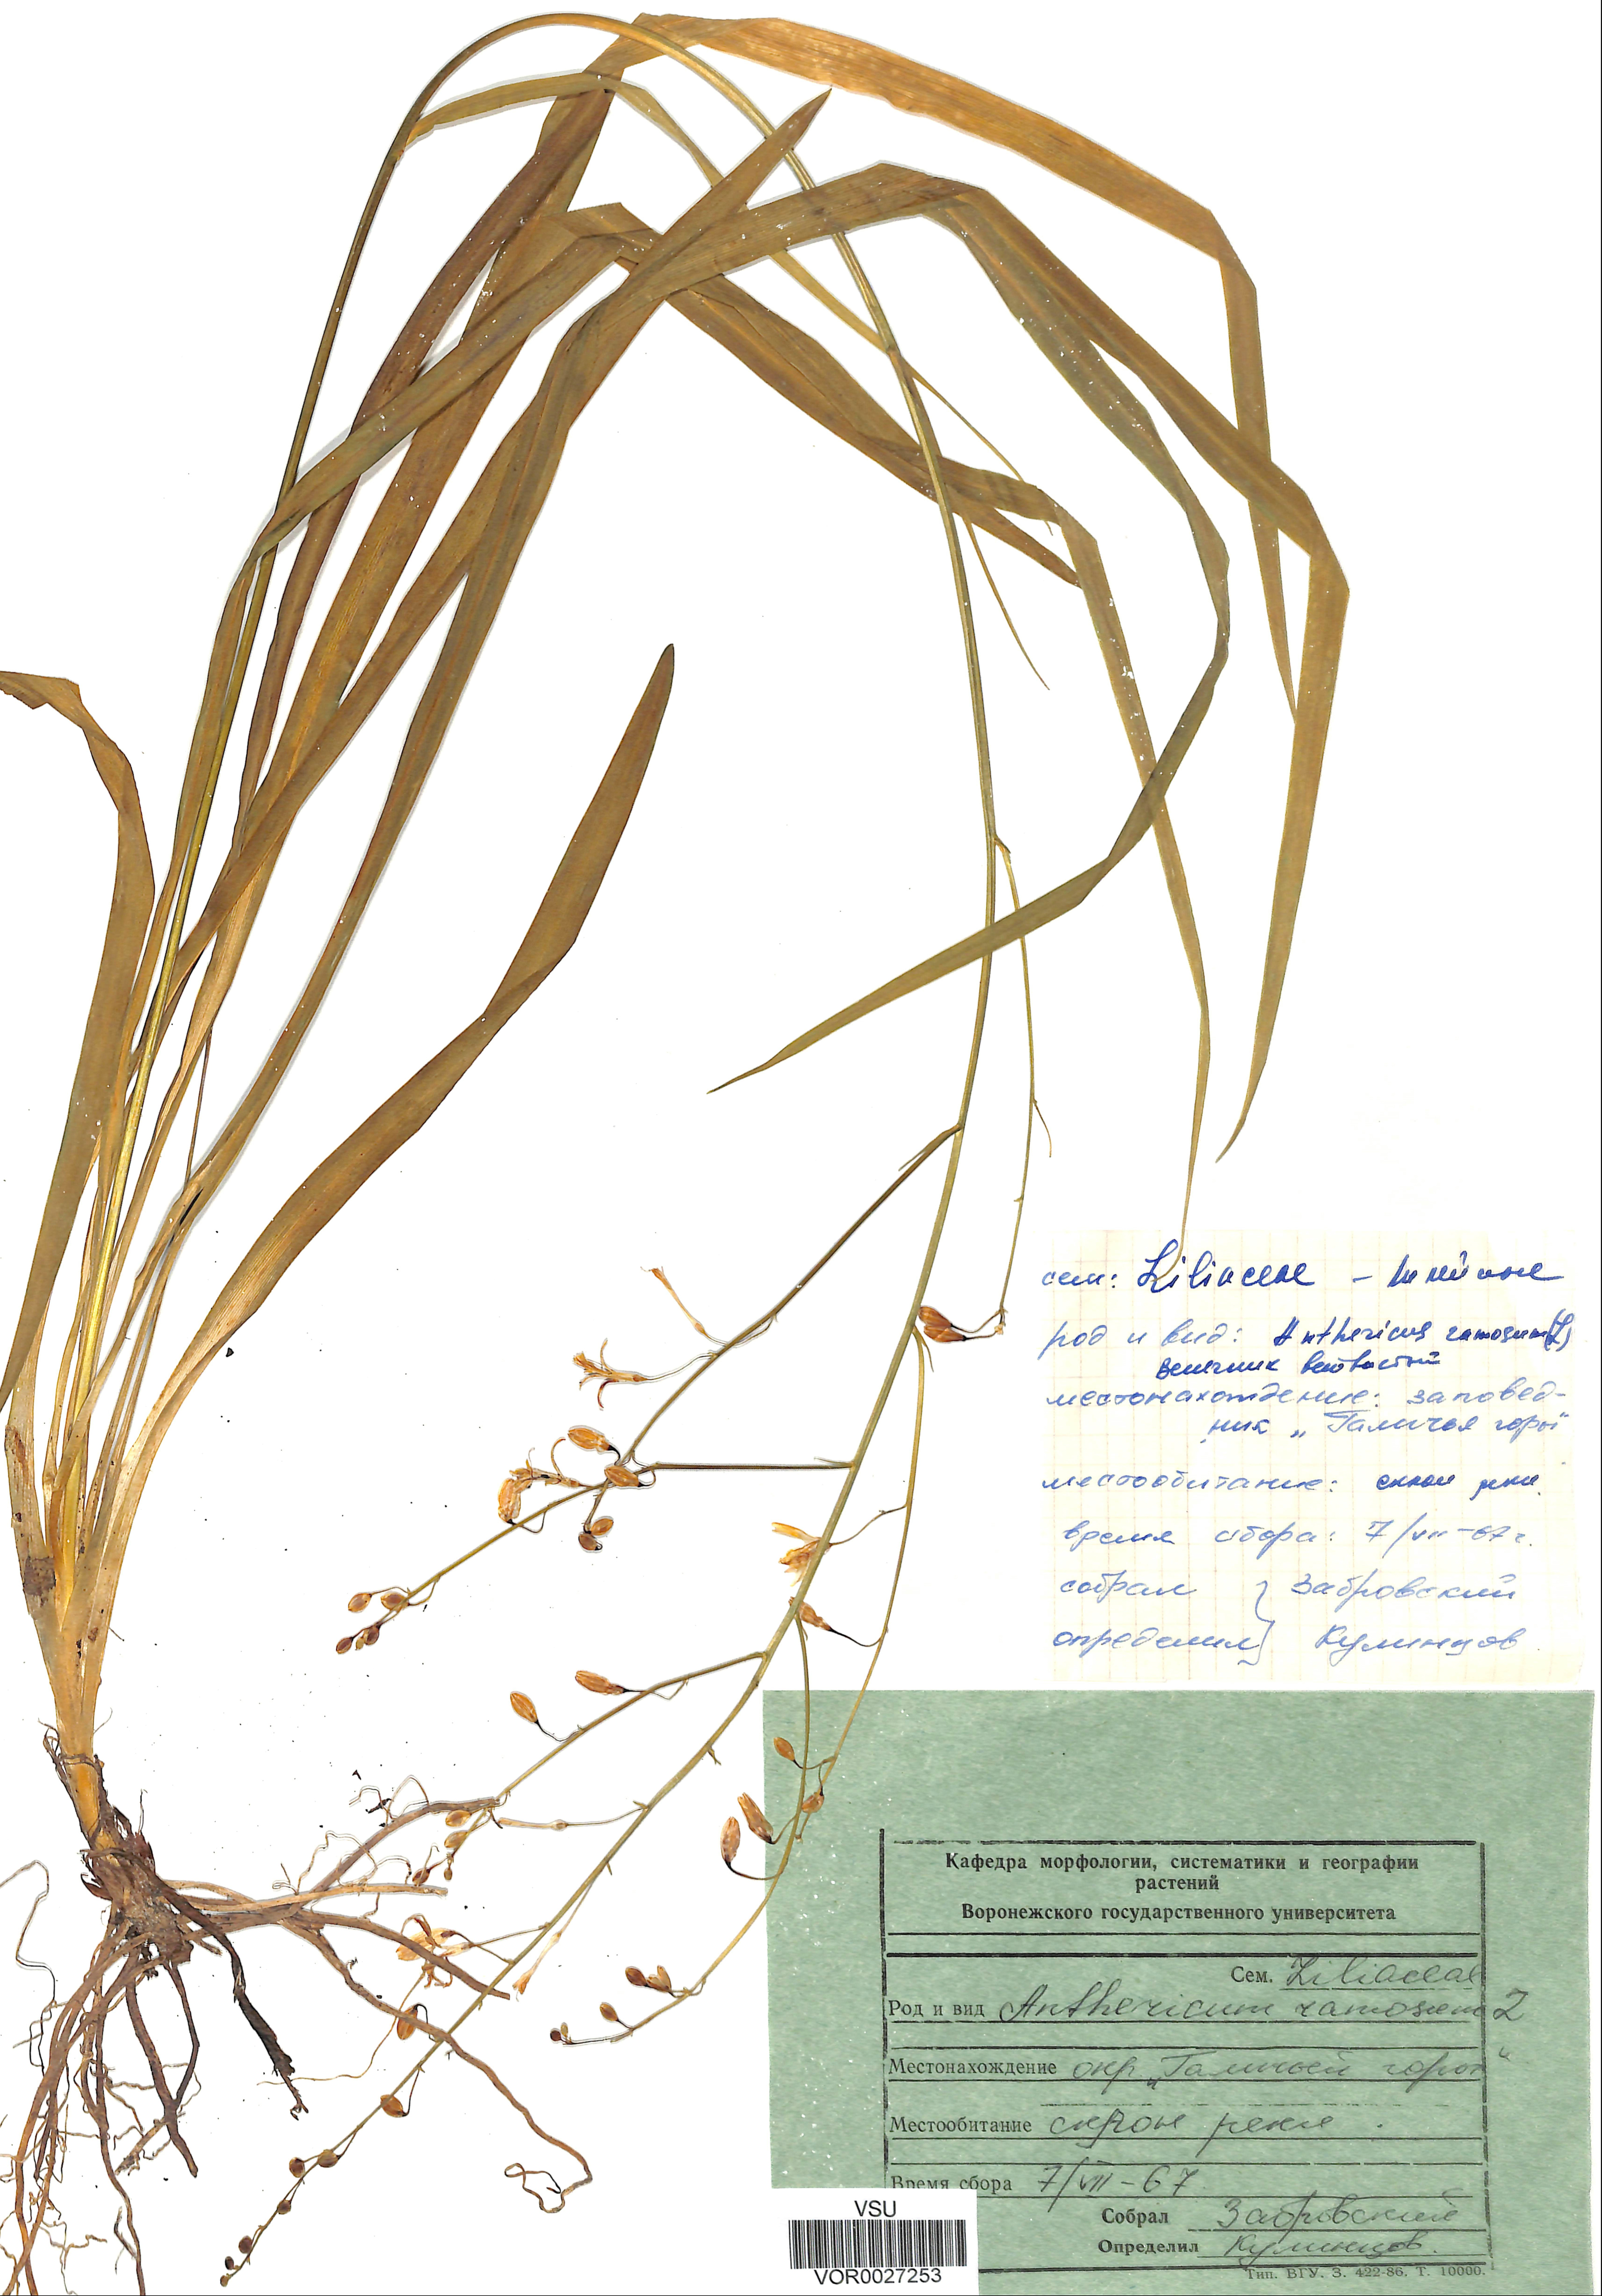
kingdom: Plantae
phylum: Tracheophyta
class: Liliopsida
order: Asparagales
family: Asparagaceae
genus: Anthericum
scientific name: Anthericum ramosum
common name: Branched st. bernard's-lily
